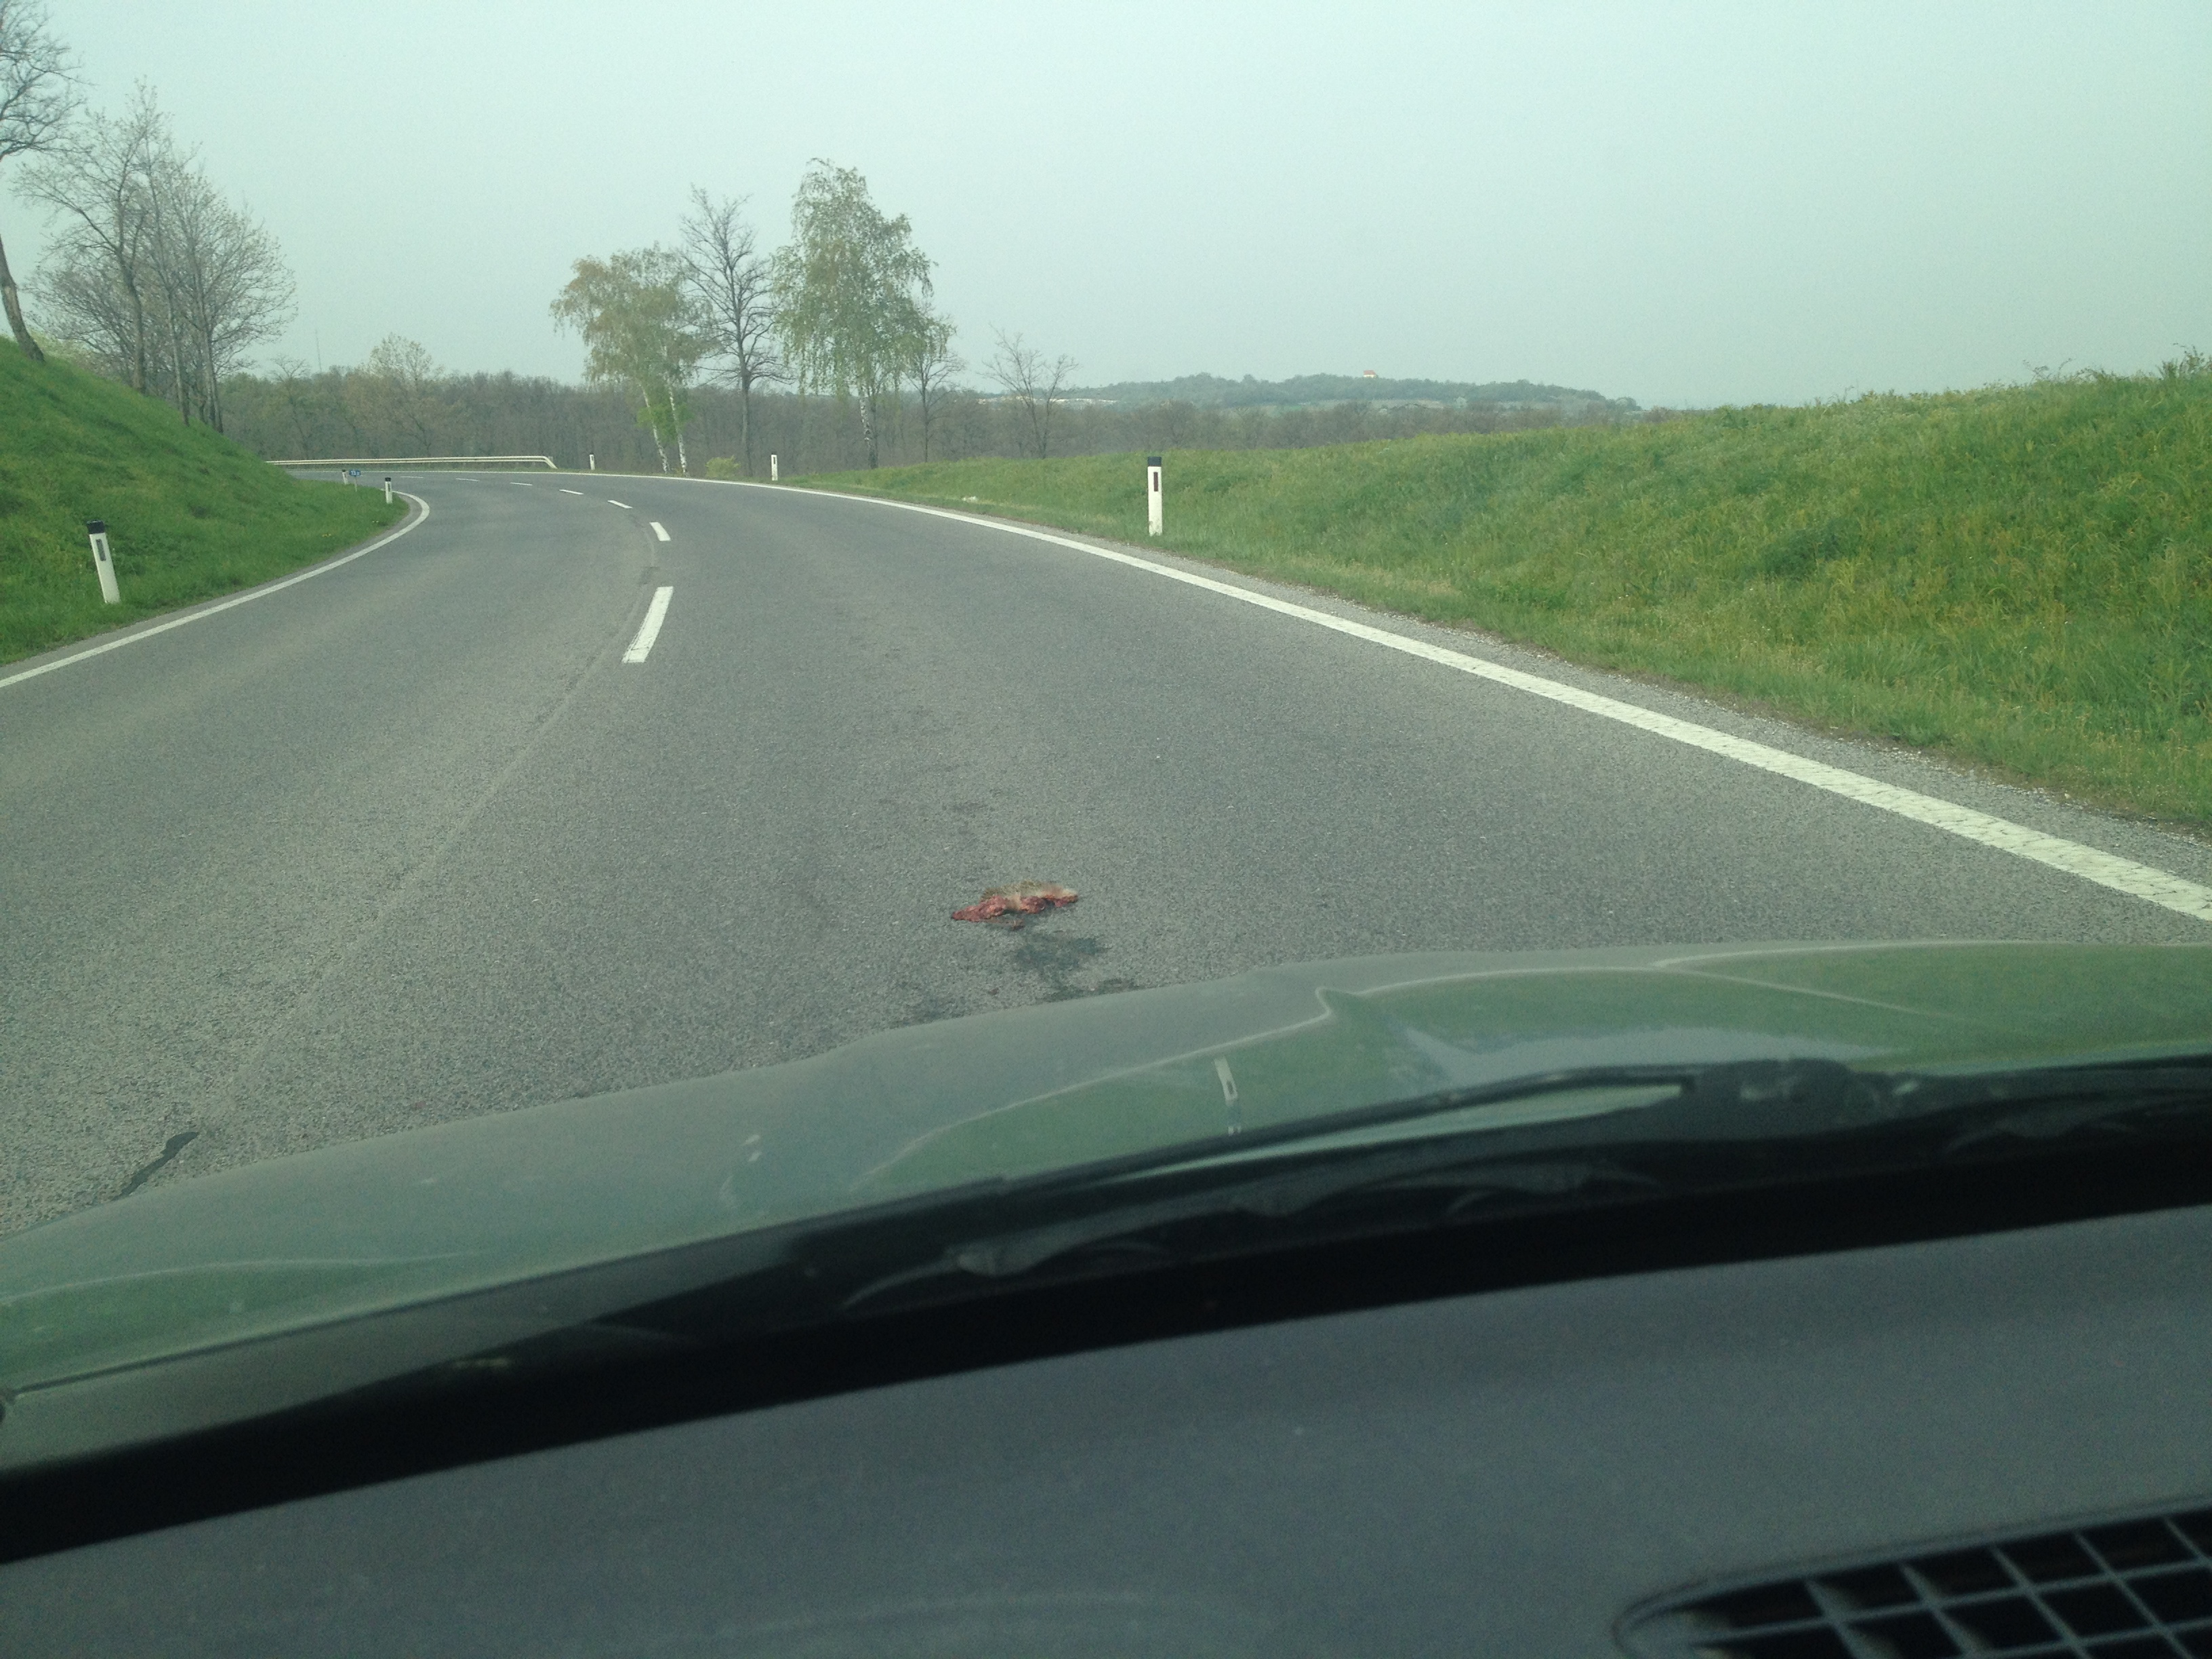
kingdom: Animalia
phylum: Chordata
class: Mammalia
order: Erinaceomorpha
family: Erinaceidae
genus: Erinaceus
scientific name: Erinaceus
